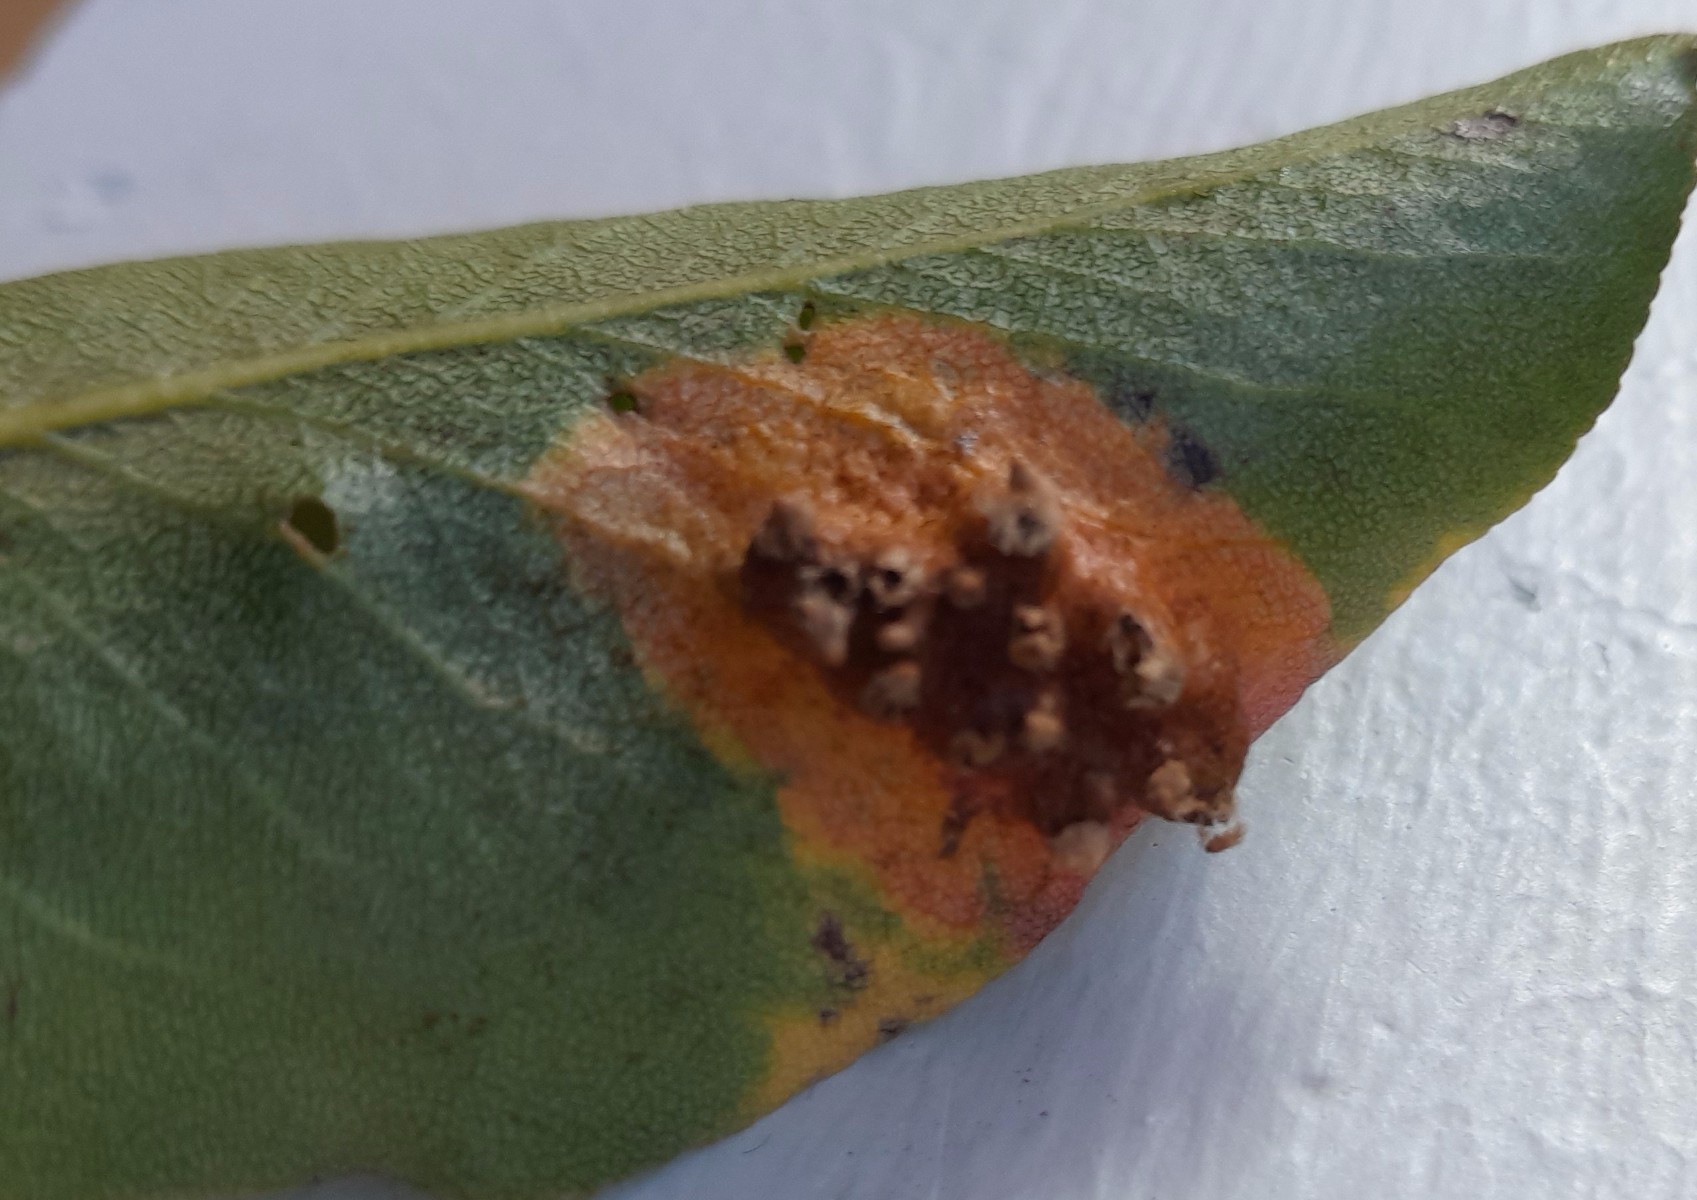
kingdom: Fungi
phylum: Basidiomycota
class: Pucciniomycetes
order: Pucciniales
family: Gymnosporangiaceae
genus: Gymnosporangium
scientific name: Gymnosporangium sabinae
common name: pæregitter-bævrerust
